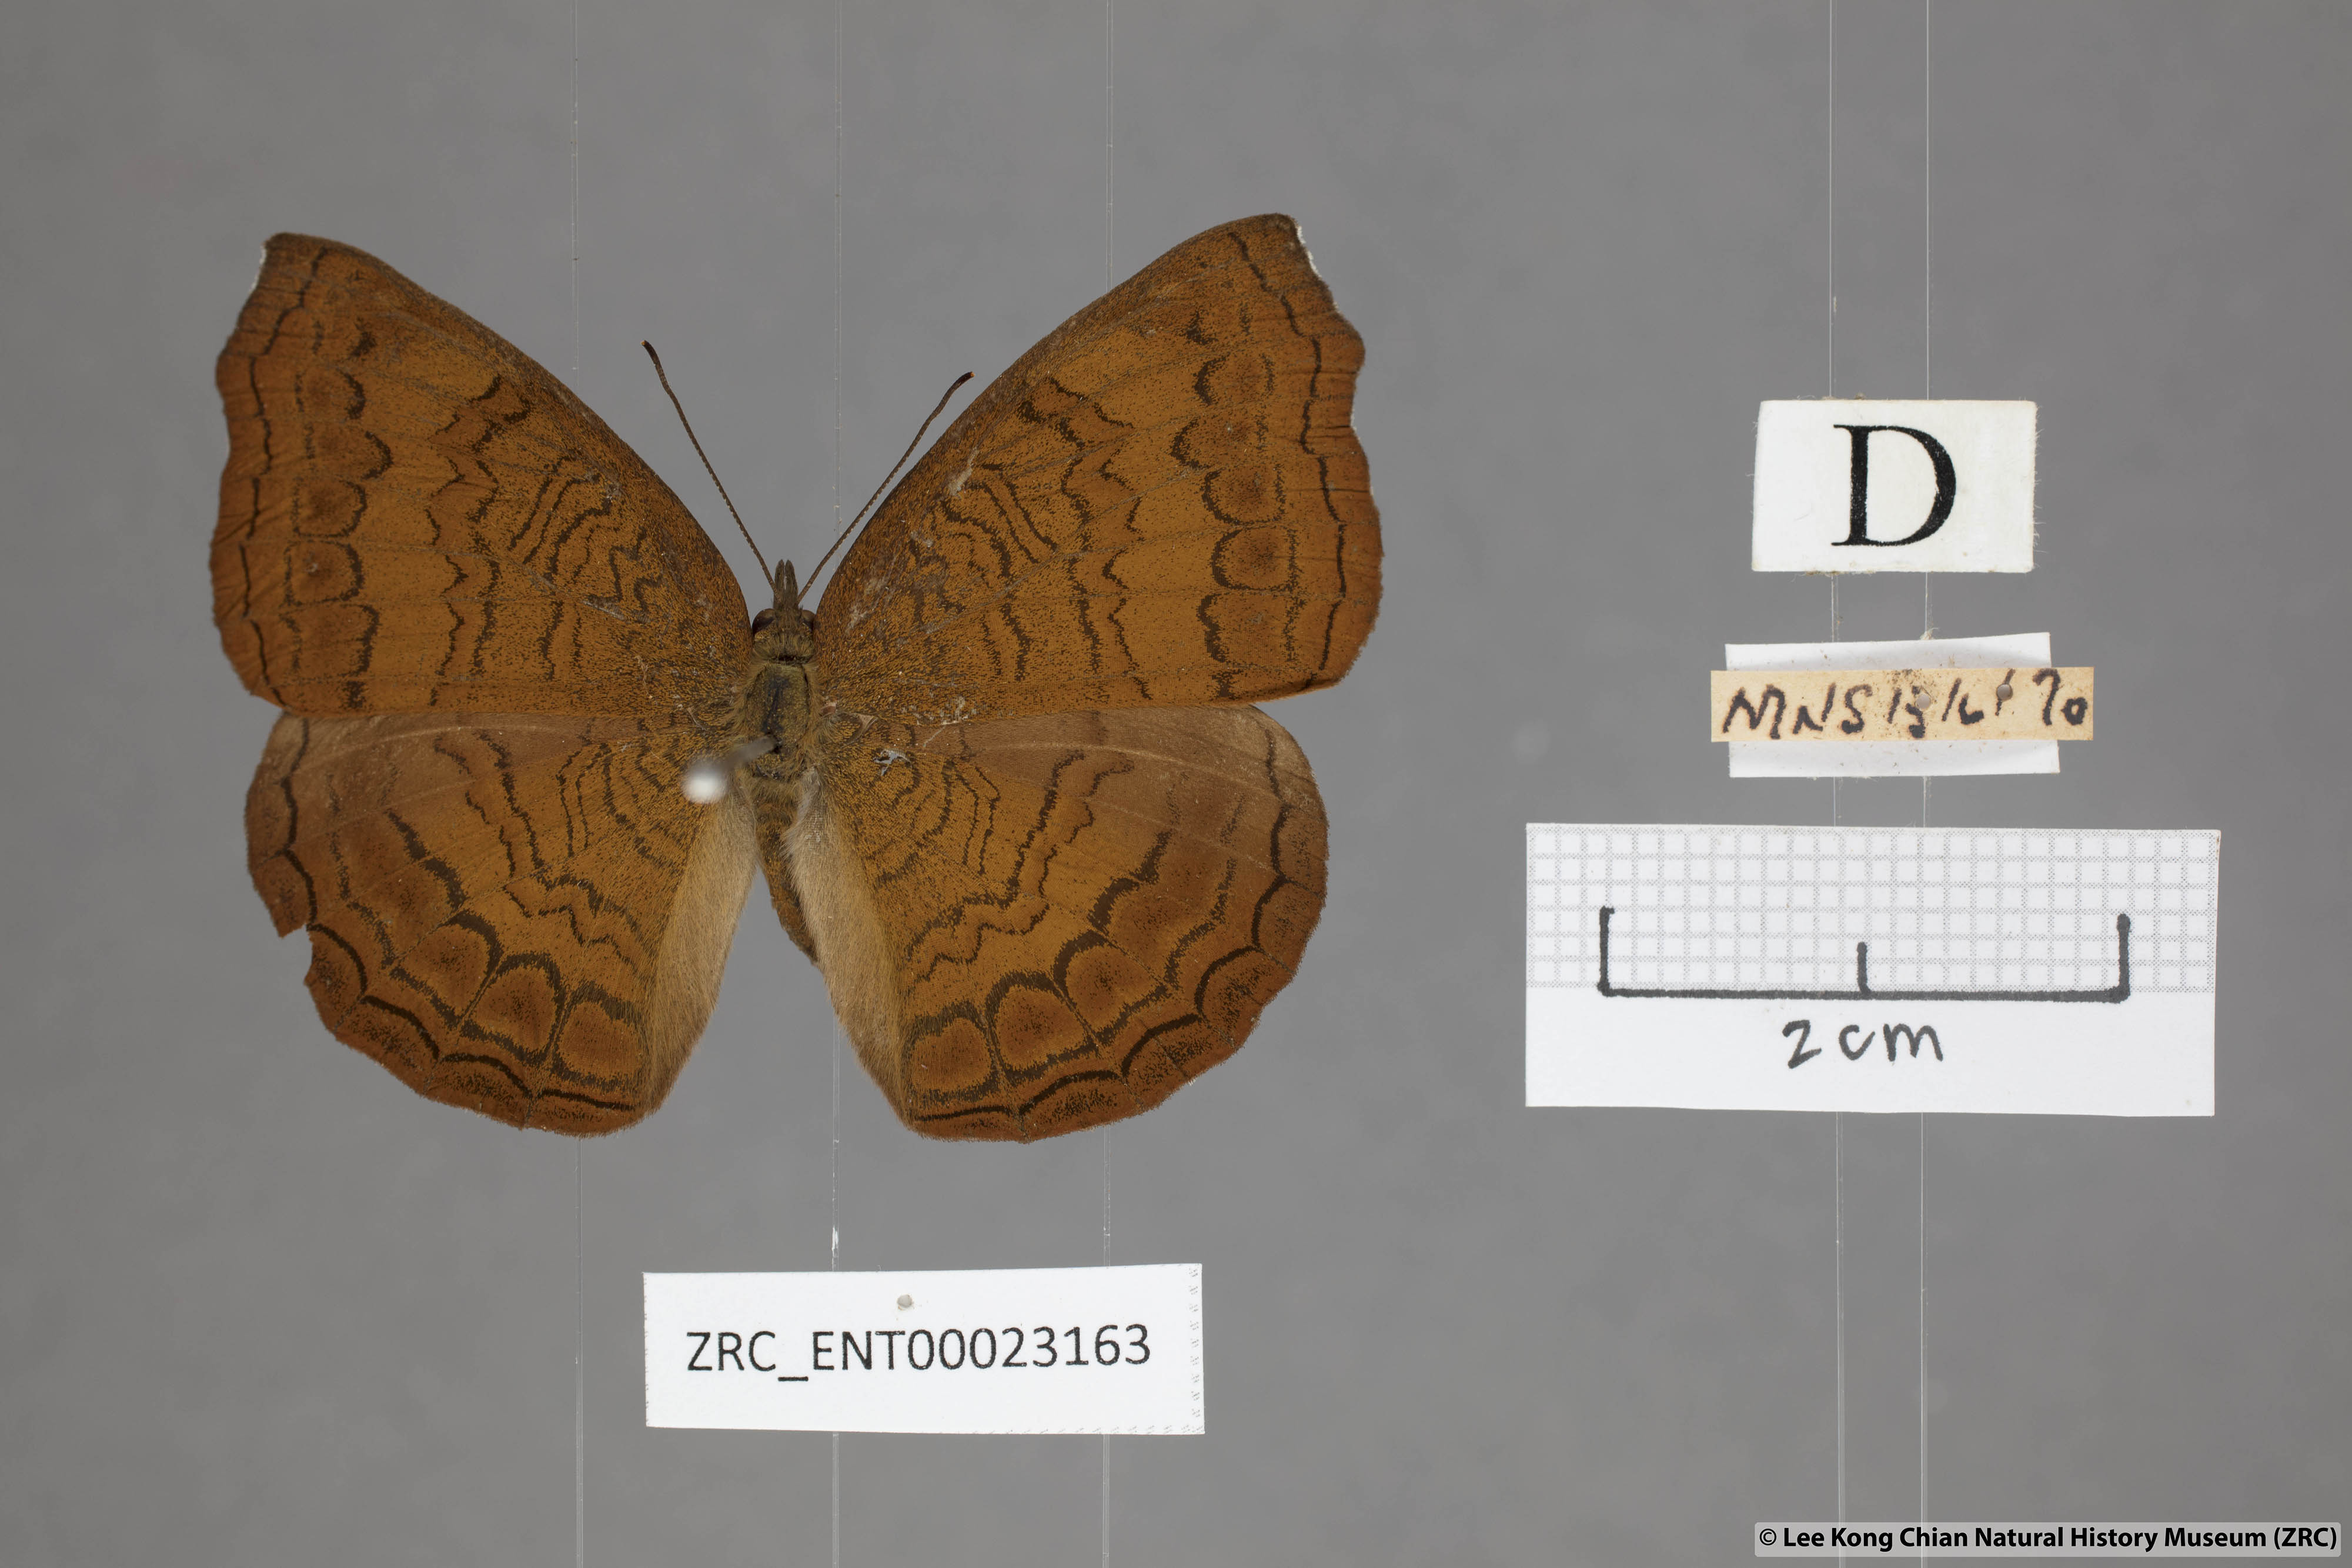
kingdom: Animalia
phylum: Arthropoda
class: Insecta
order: Lepidoptera
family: Nymphalidae
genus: Ariadne
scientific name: Ariadne isaeus
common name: Malayan castor
